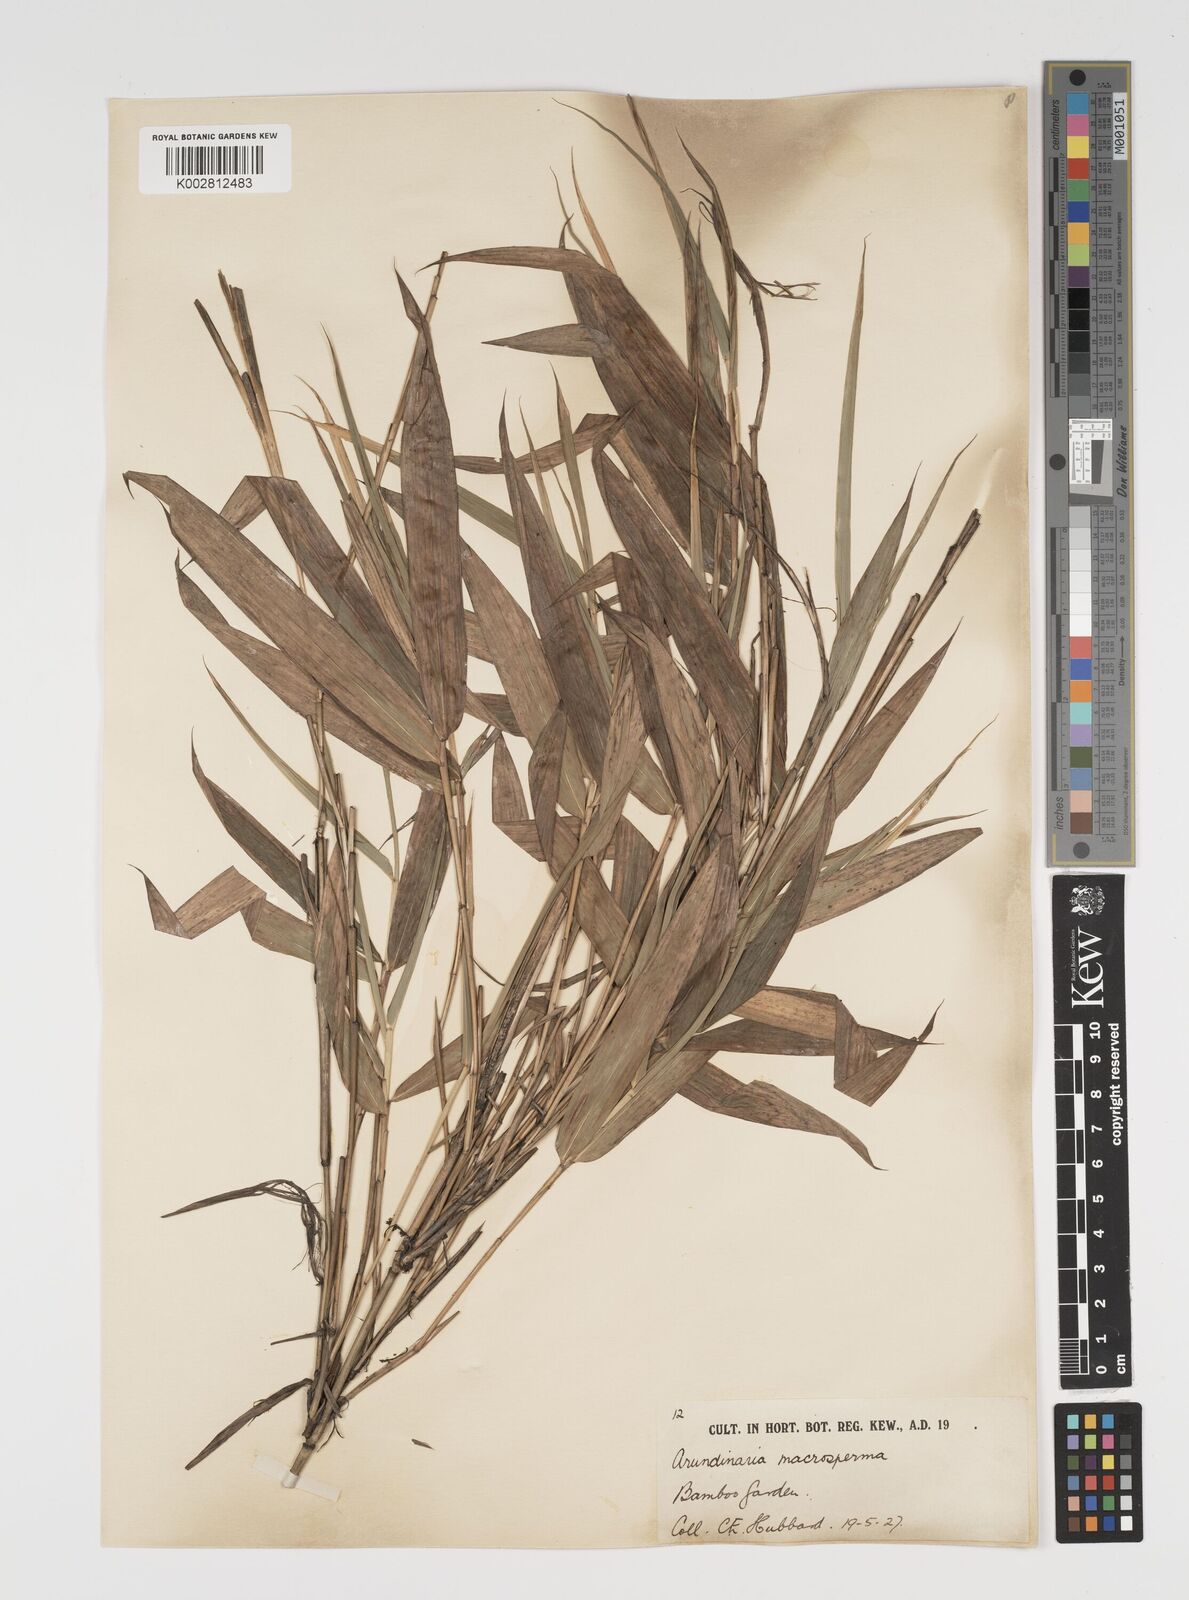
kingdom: Plantae
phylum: Tracheophyta
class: Liliopsida
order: Poales
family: Poaceae
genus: Pseudosasa
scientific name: Pseudosasa amabilis
